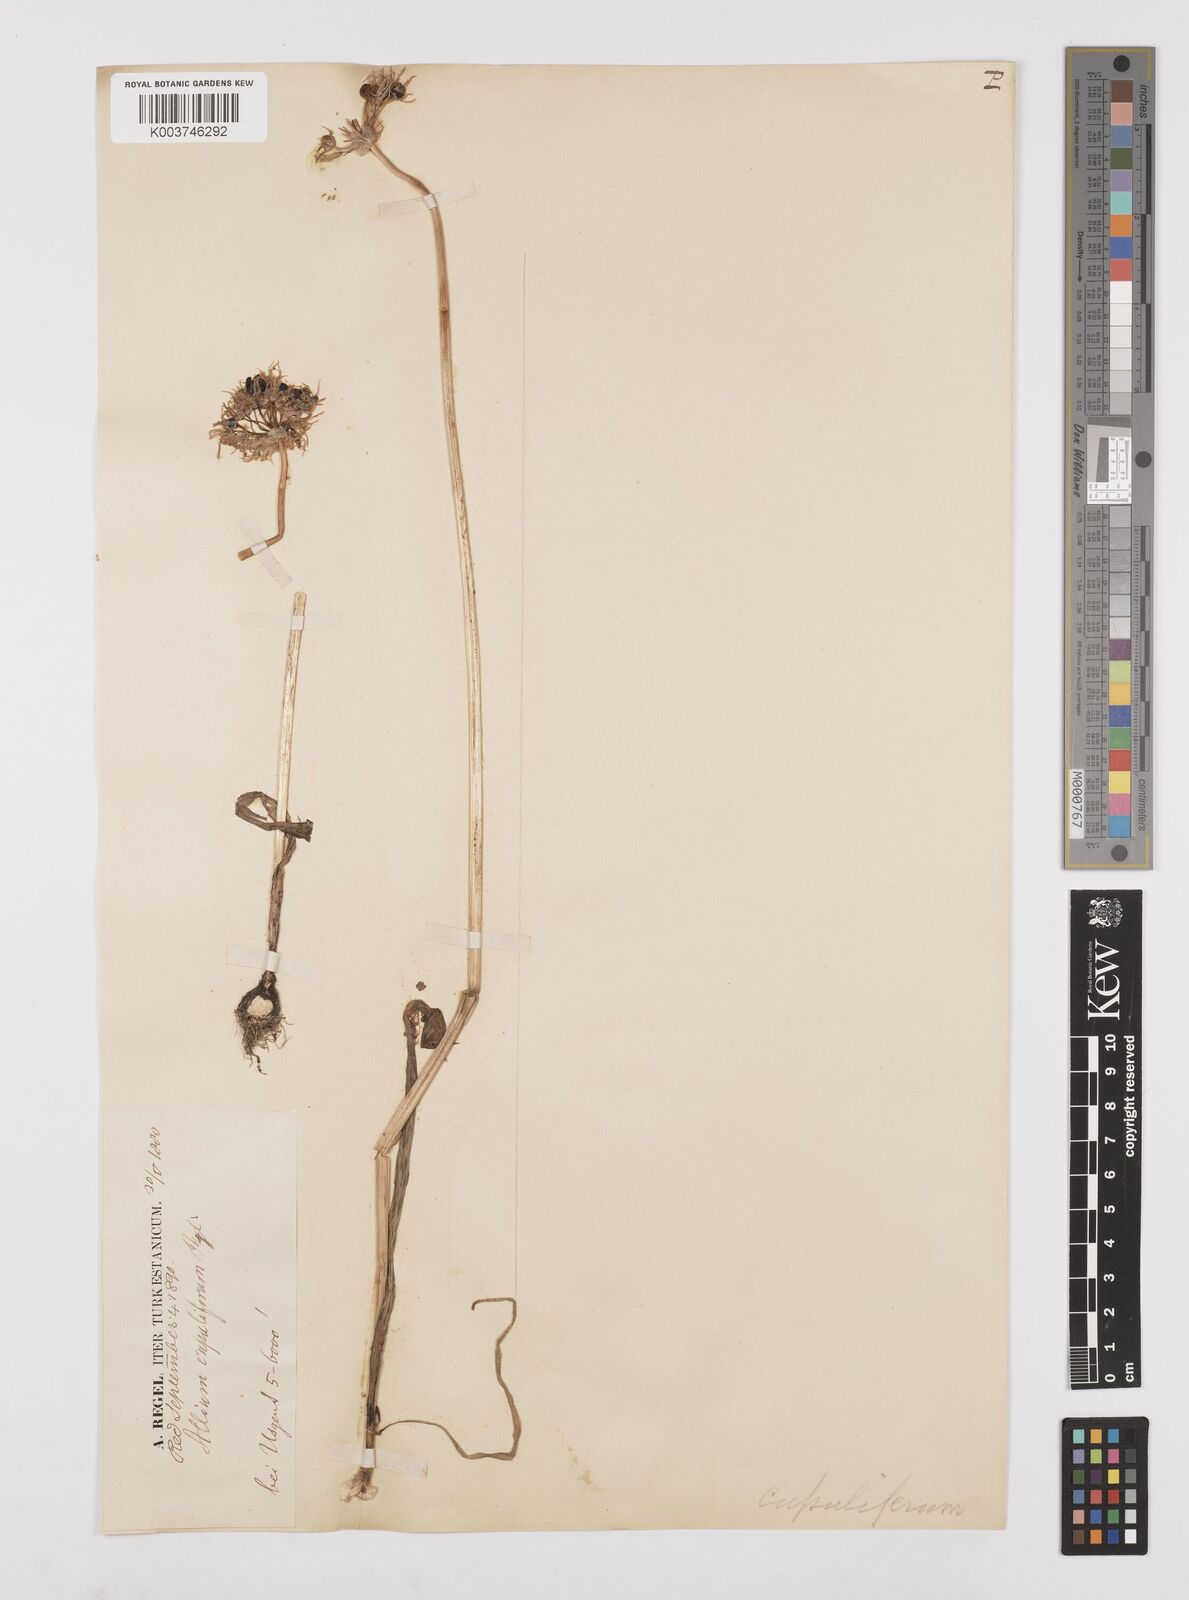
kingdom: Plantae
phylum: Tracheophyta
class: Liliopsida
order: Asparagales
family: Amaryllidaceae
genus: Allium
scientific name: Allium cupuliferum
